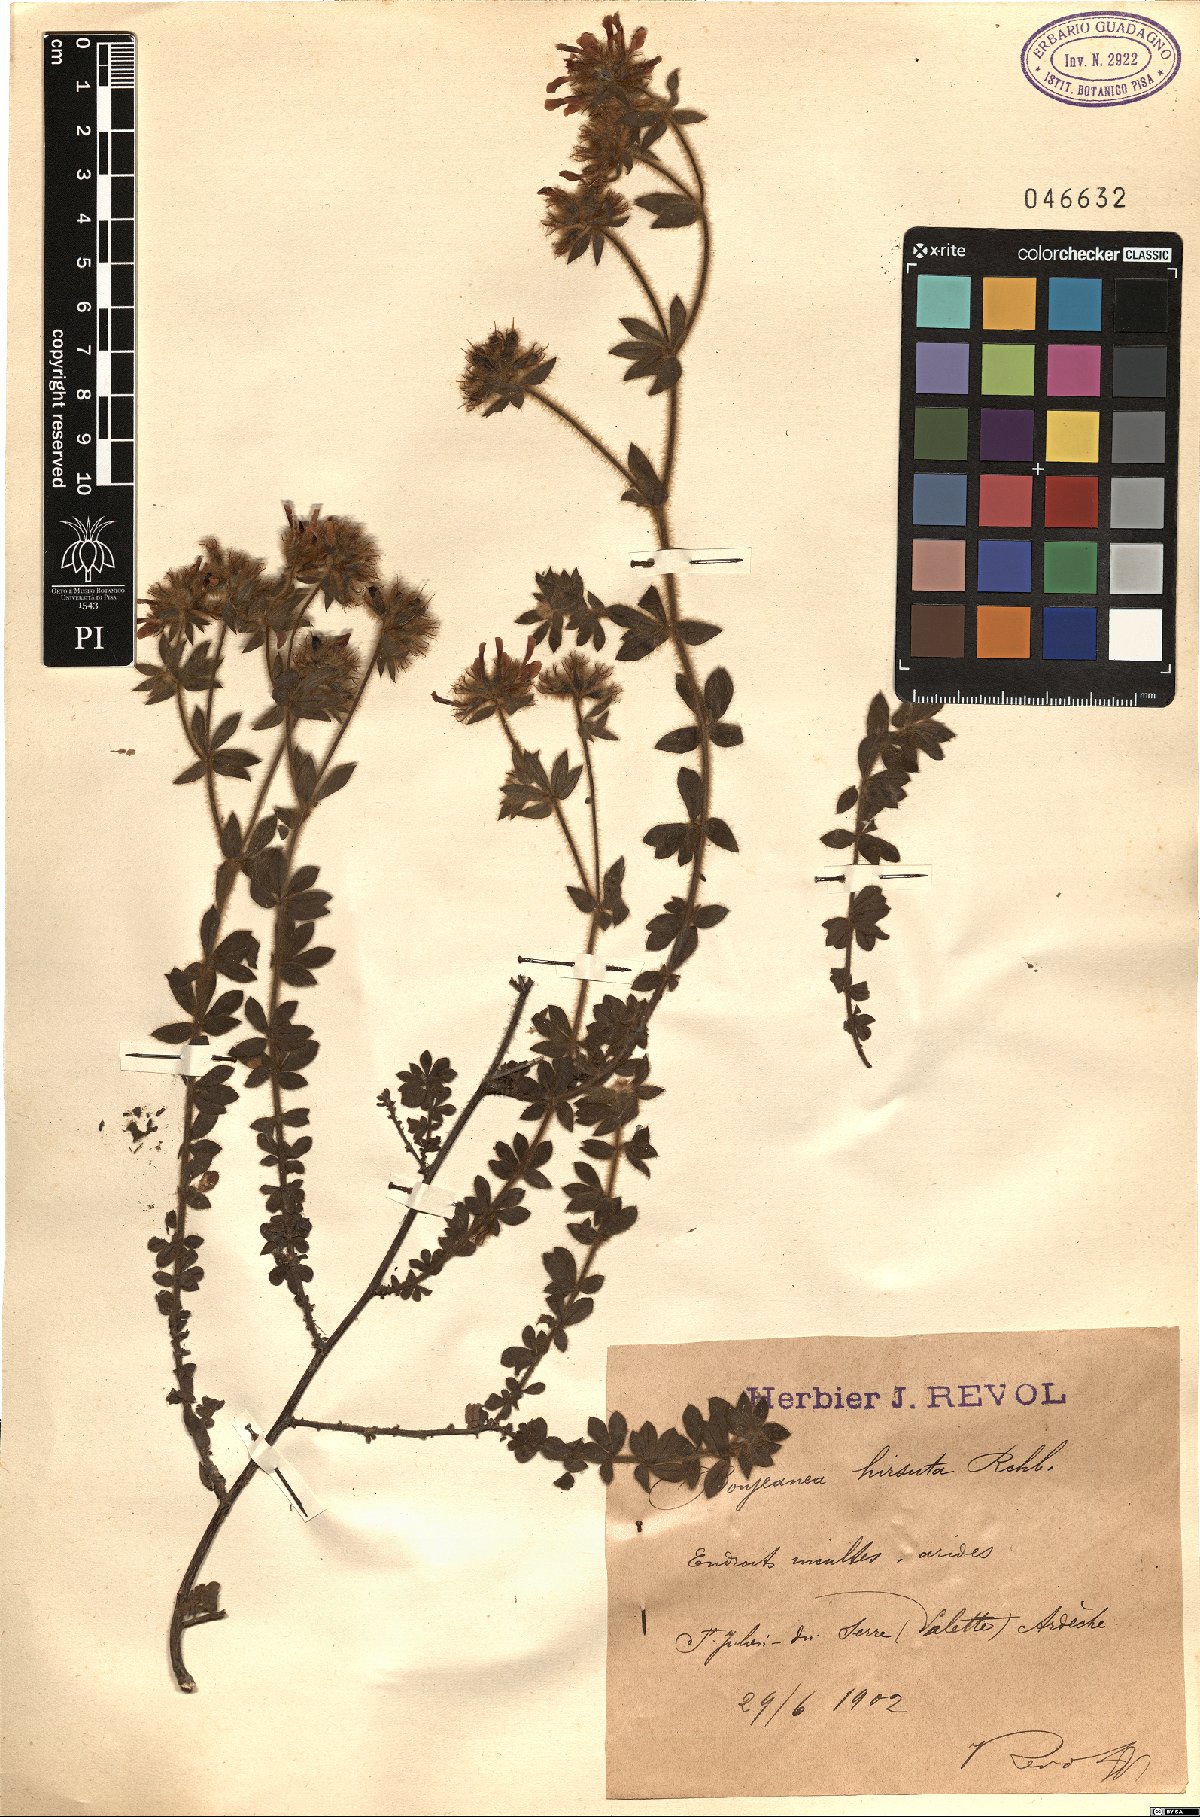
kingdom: Plantae
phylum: Tracheophyta
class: Magnoliopsida
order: Fabales
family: Fabaceae
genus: Lotus
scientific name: Lotus hirsutus
